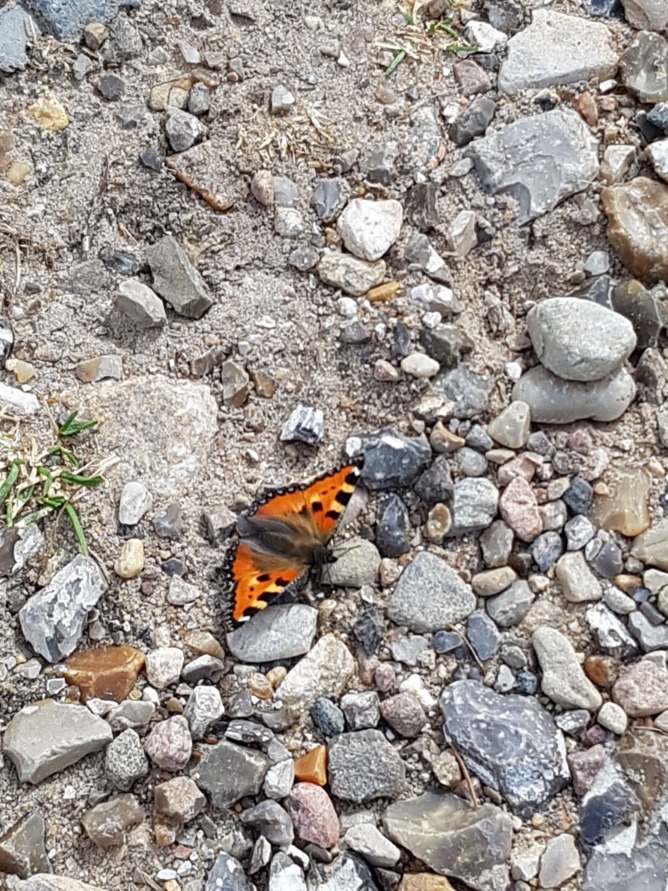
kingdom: Animalia
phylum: Arthropoda
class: Insecta
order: Lepidoptera
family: Nymphalidae
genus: Aglais
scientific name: Aglais urticae
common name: Nældens takvinge
